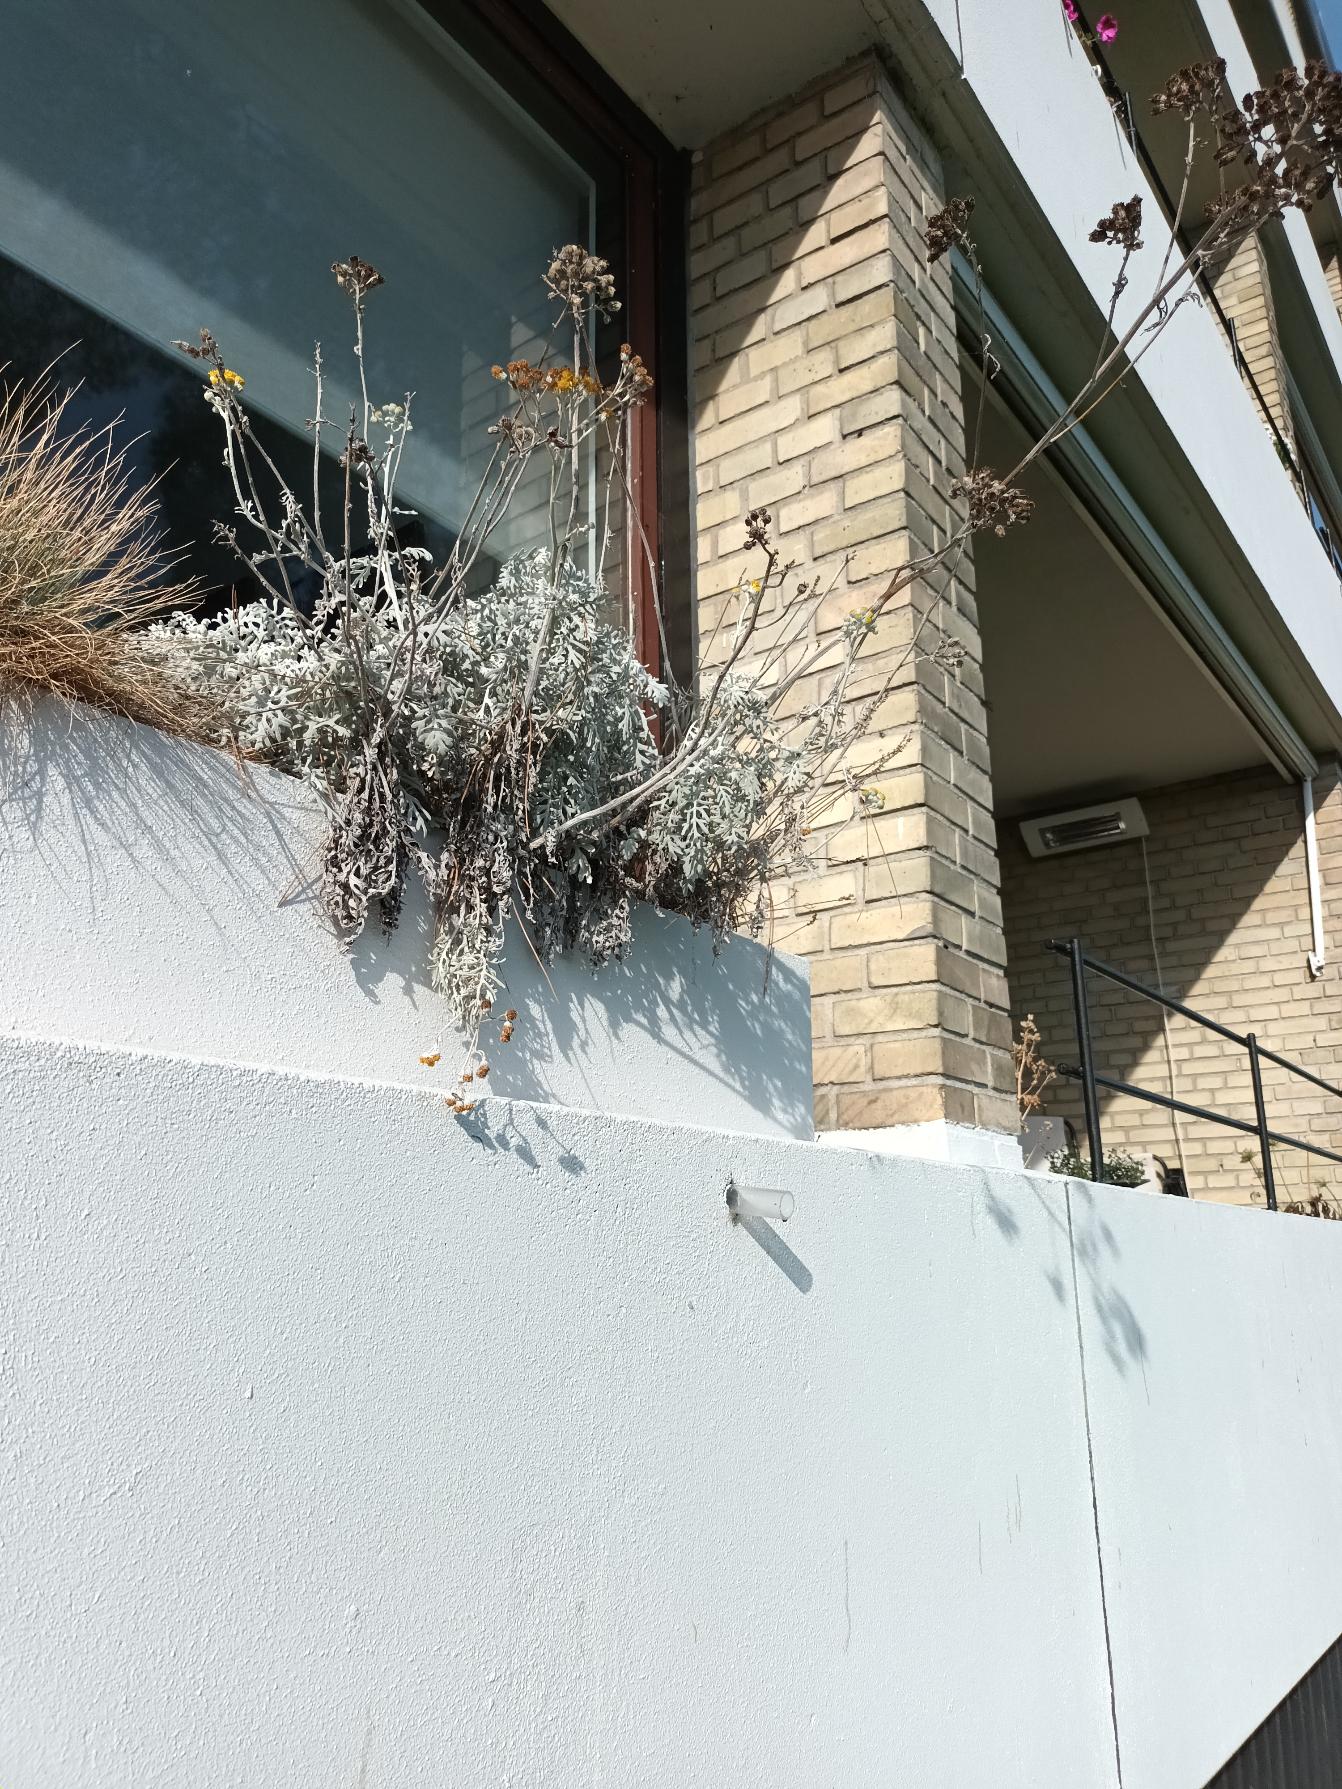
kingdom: Plantae
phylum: Tracheophyta
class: Magnoliopsida
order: Asterales
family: Asteraceae
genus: Jacobaea
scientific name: Jacobaea maritima
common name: Gråblad
